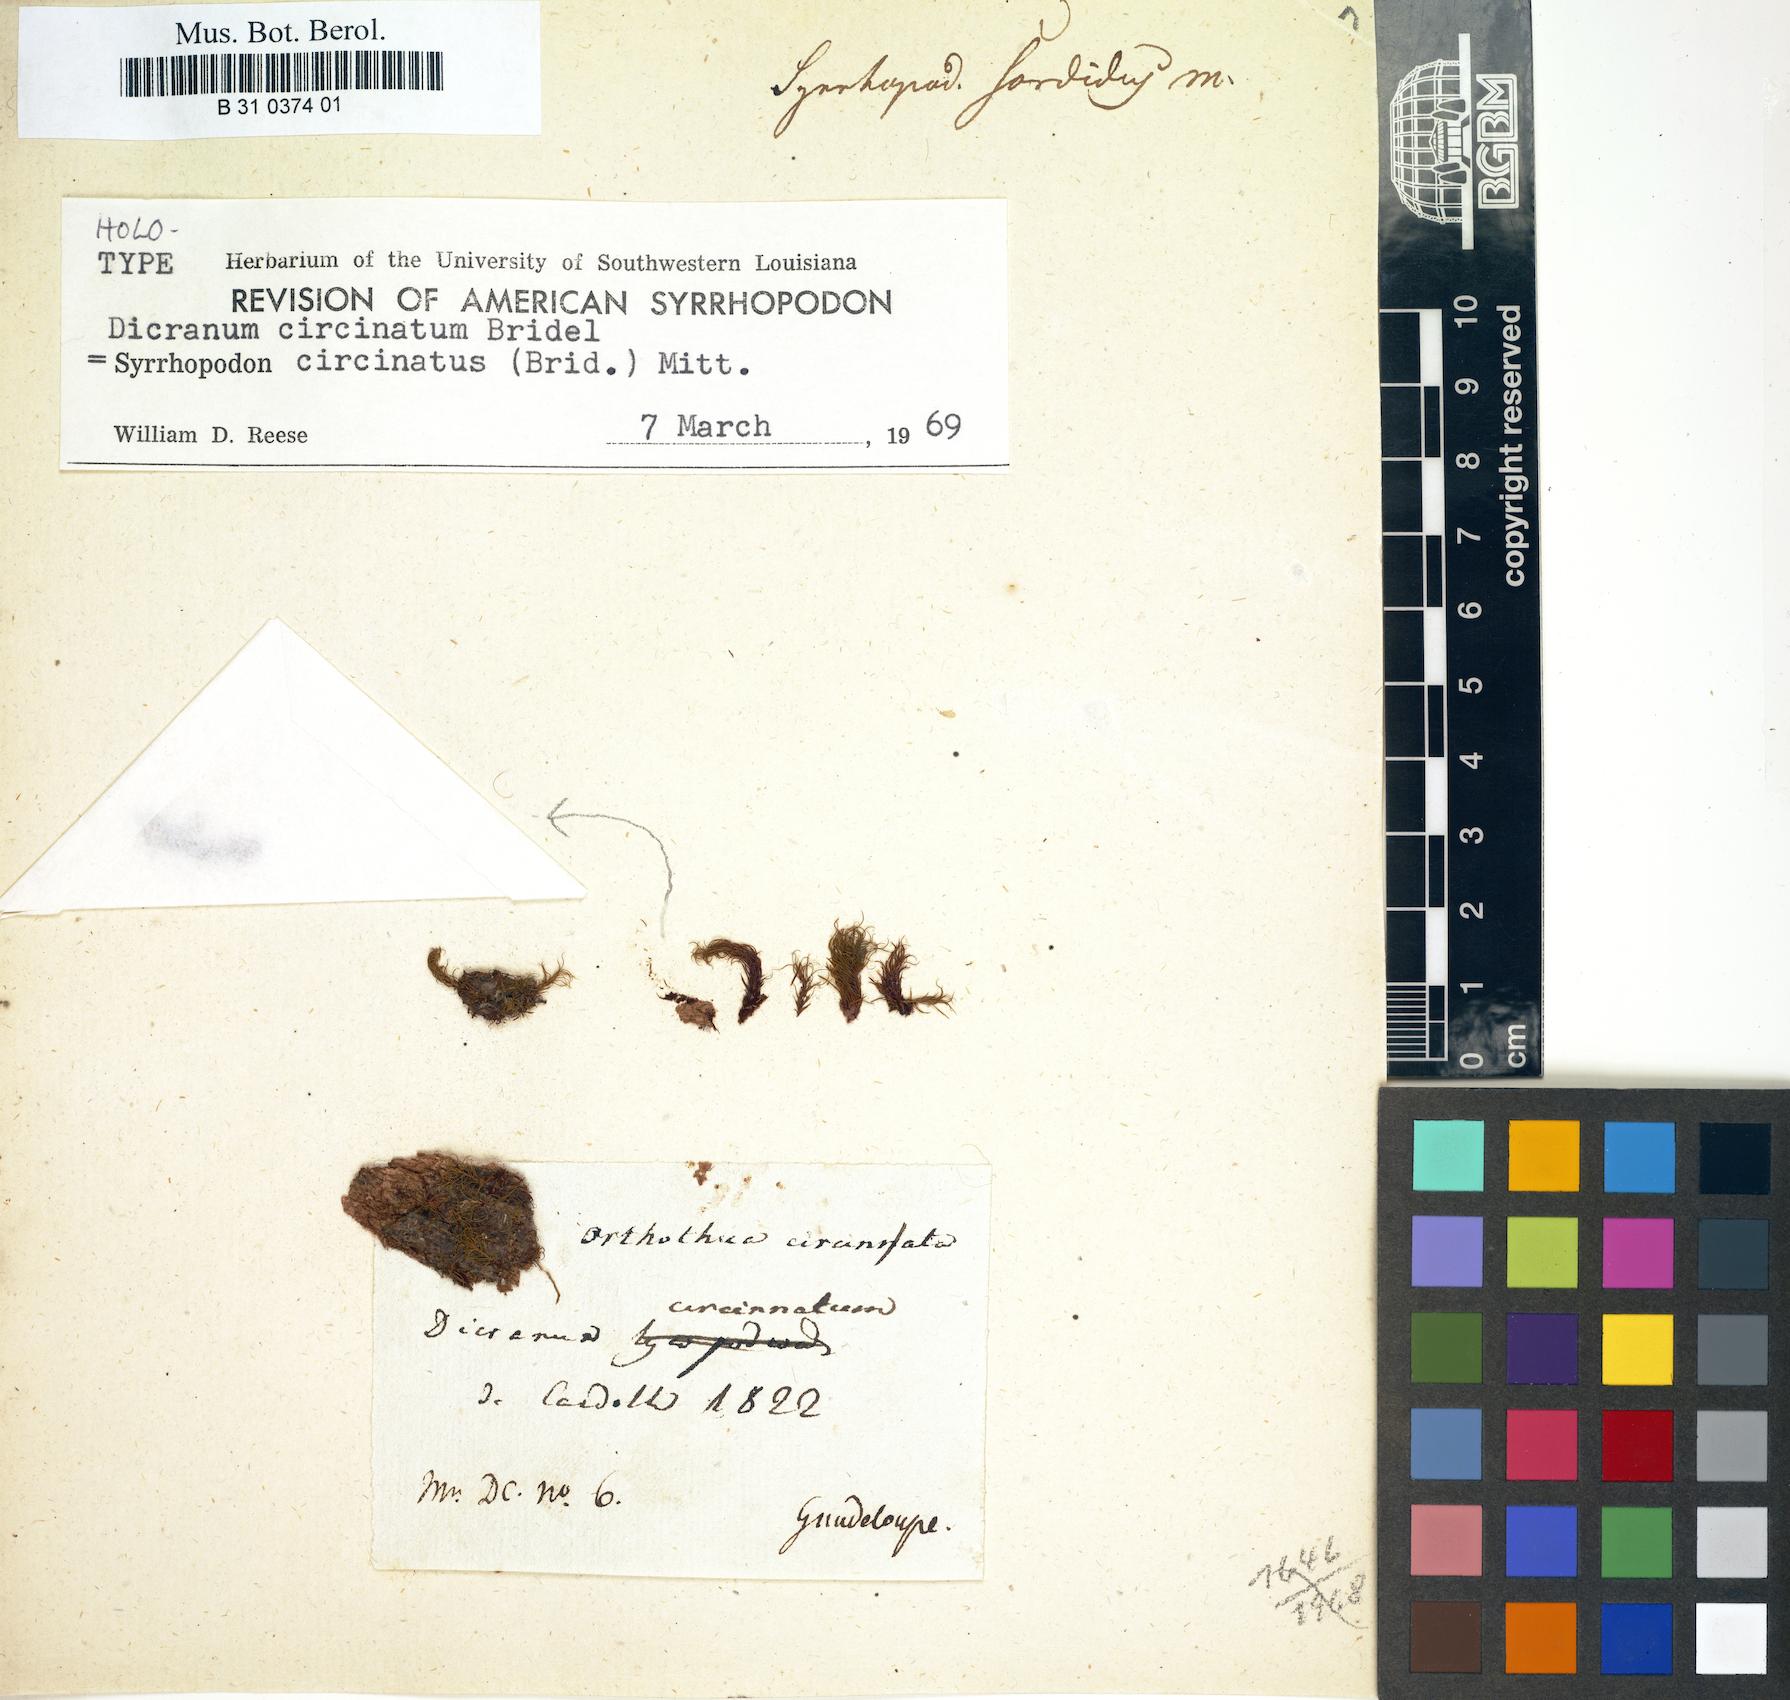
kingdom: Plantae
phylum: Bryophyta
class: Bryopsida
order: Dicranales
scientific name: Dicranales
